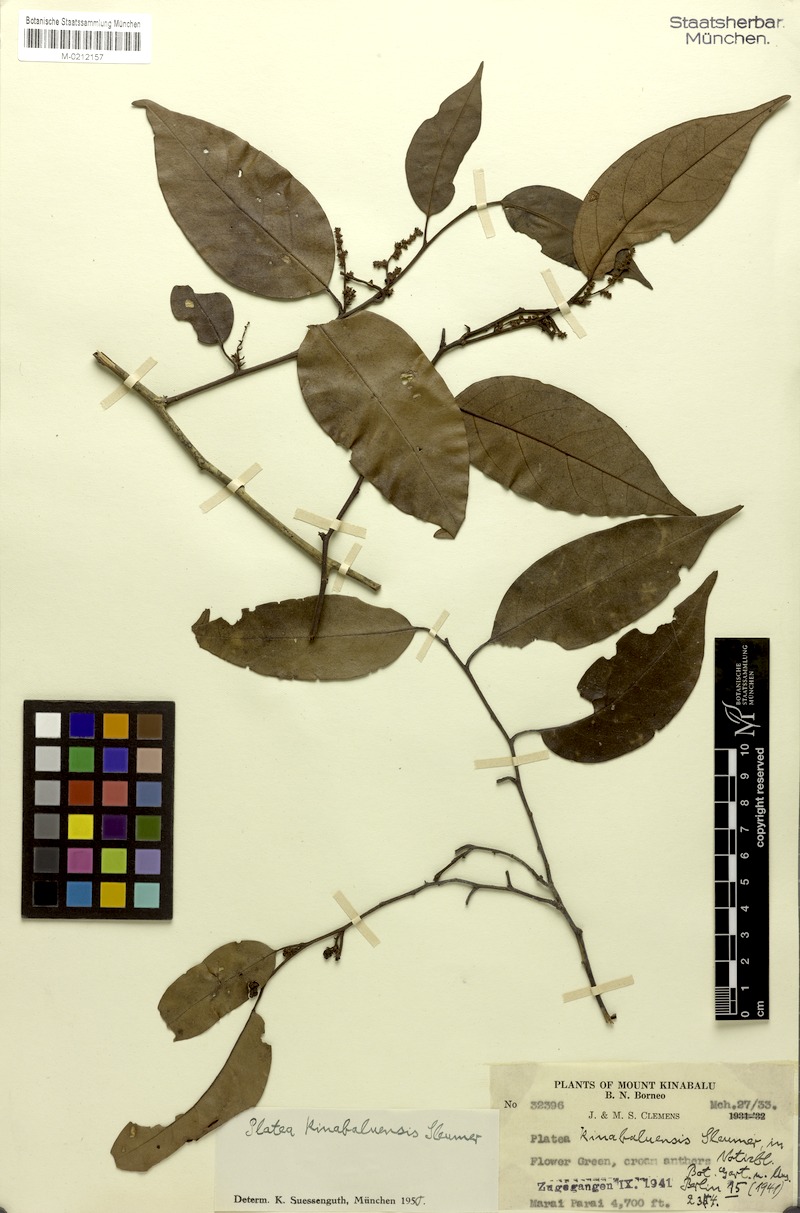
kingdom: Plantae
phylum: Tracheophyta
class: Magnoliopsida
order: Metteniusales
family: Metteniusaceae
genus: Platea
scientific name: Platea excelsa
